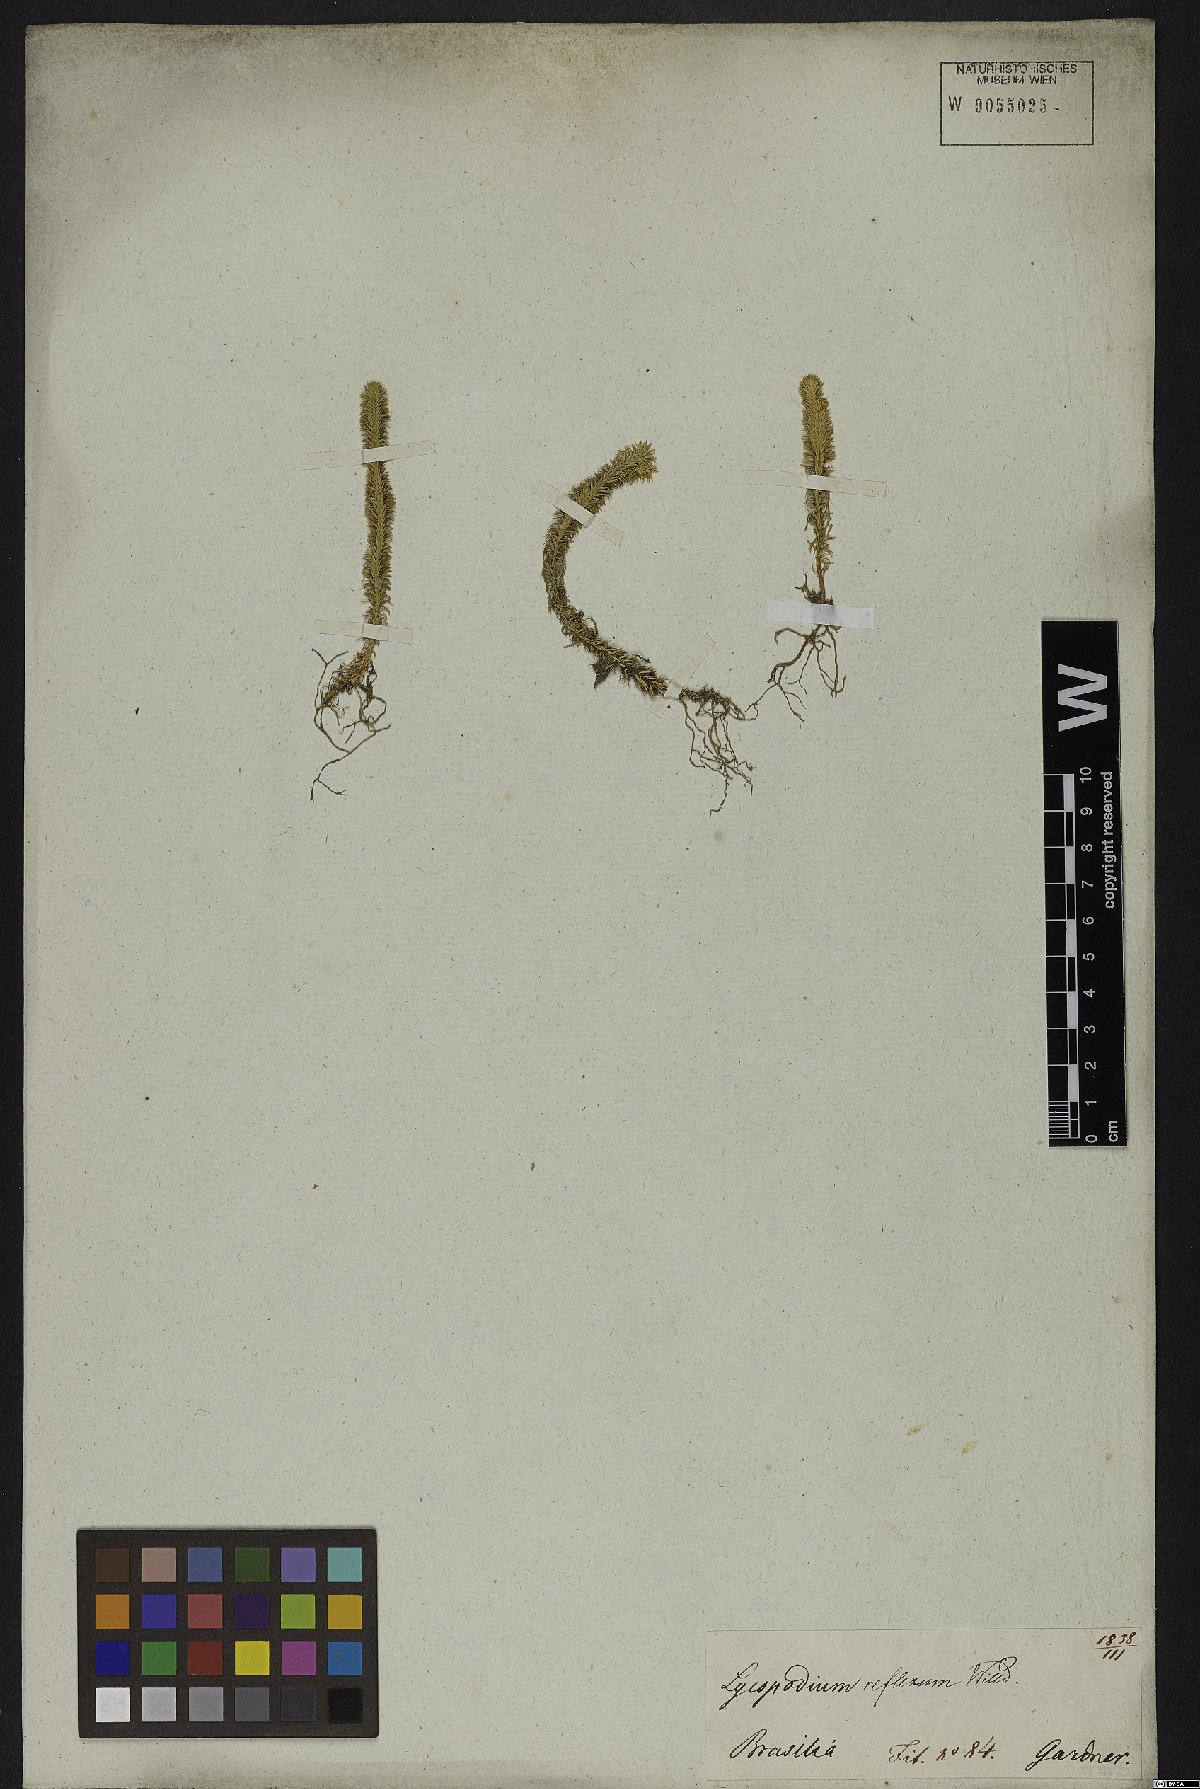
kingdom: Plantae
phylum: Tracheophyta
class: Lycopodiopsida
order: Lycopodiales
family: Lycopodiaceae
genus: Phlegmariurus
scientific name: Phlegmariurus reflexus
